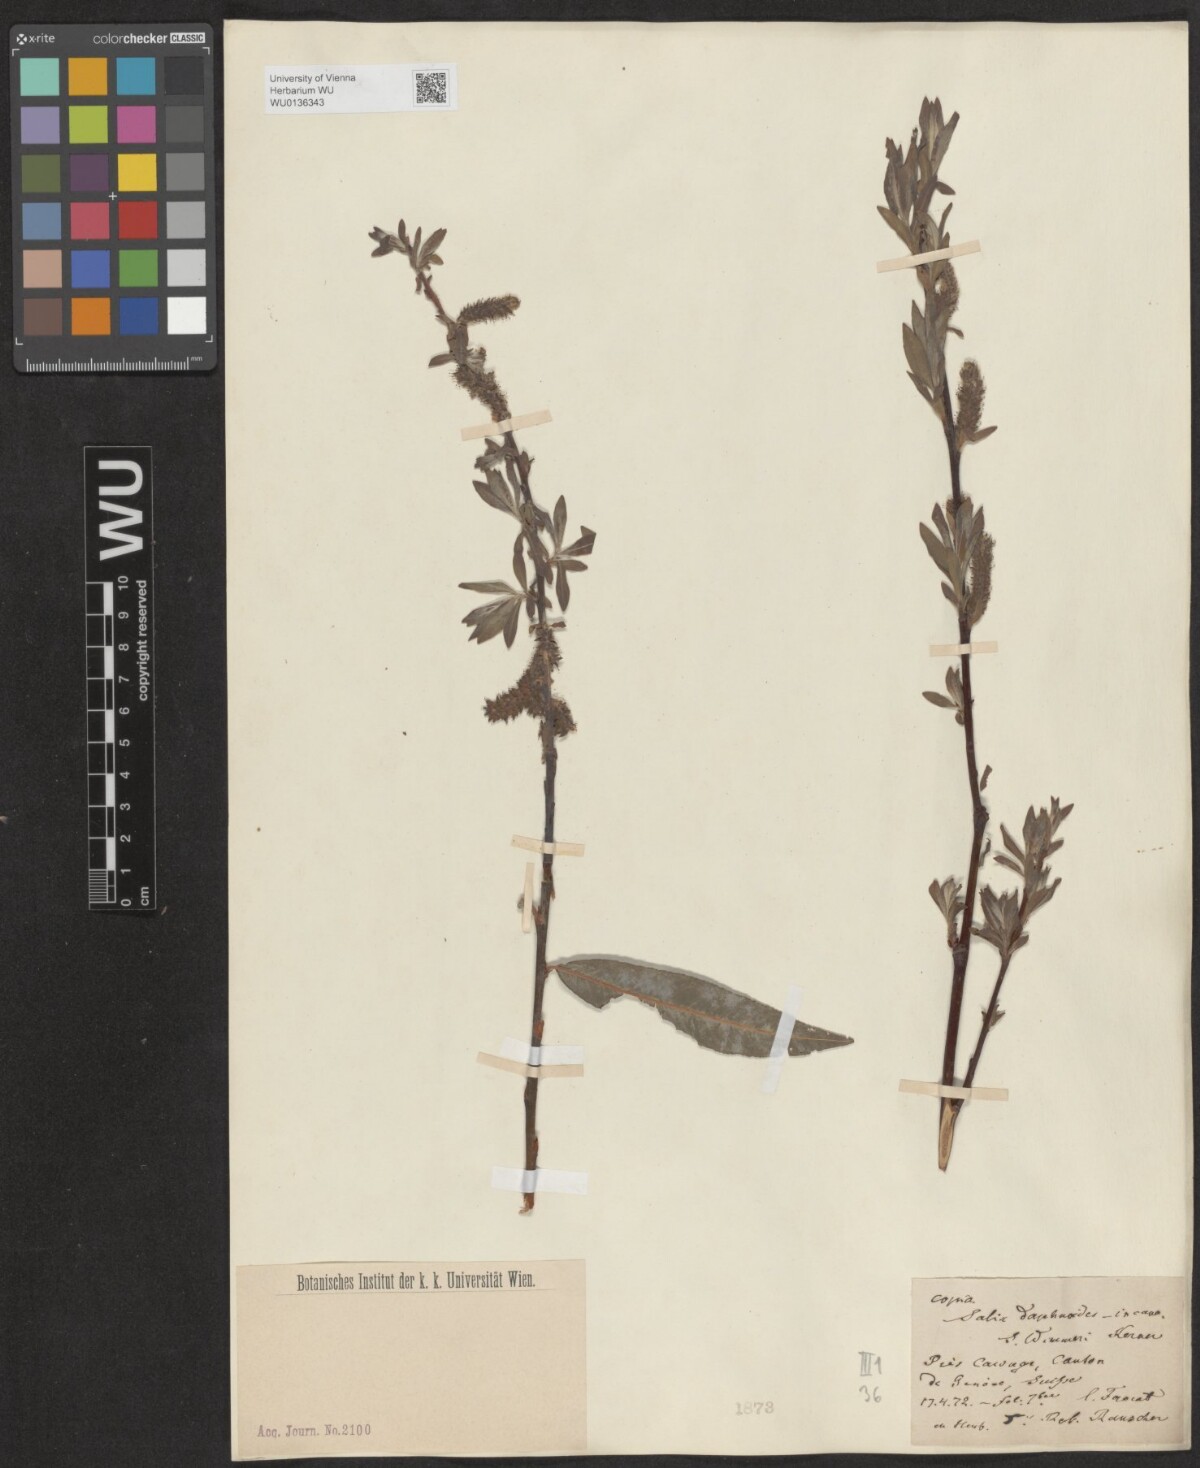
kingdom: Plantae
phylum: Tracheophyta
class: Magnoliopsida
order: Malpighiales
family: Salicaceae
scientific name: Salicaceae
